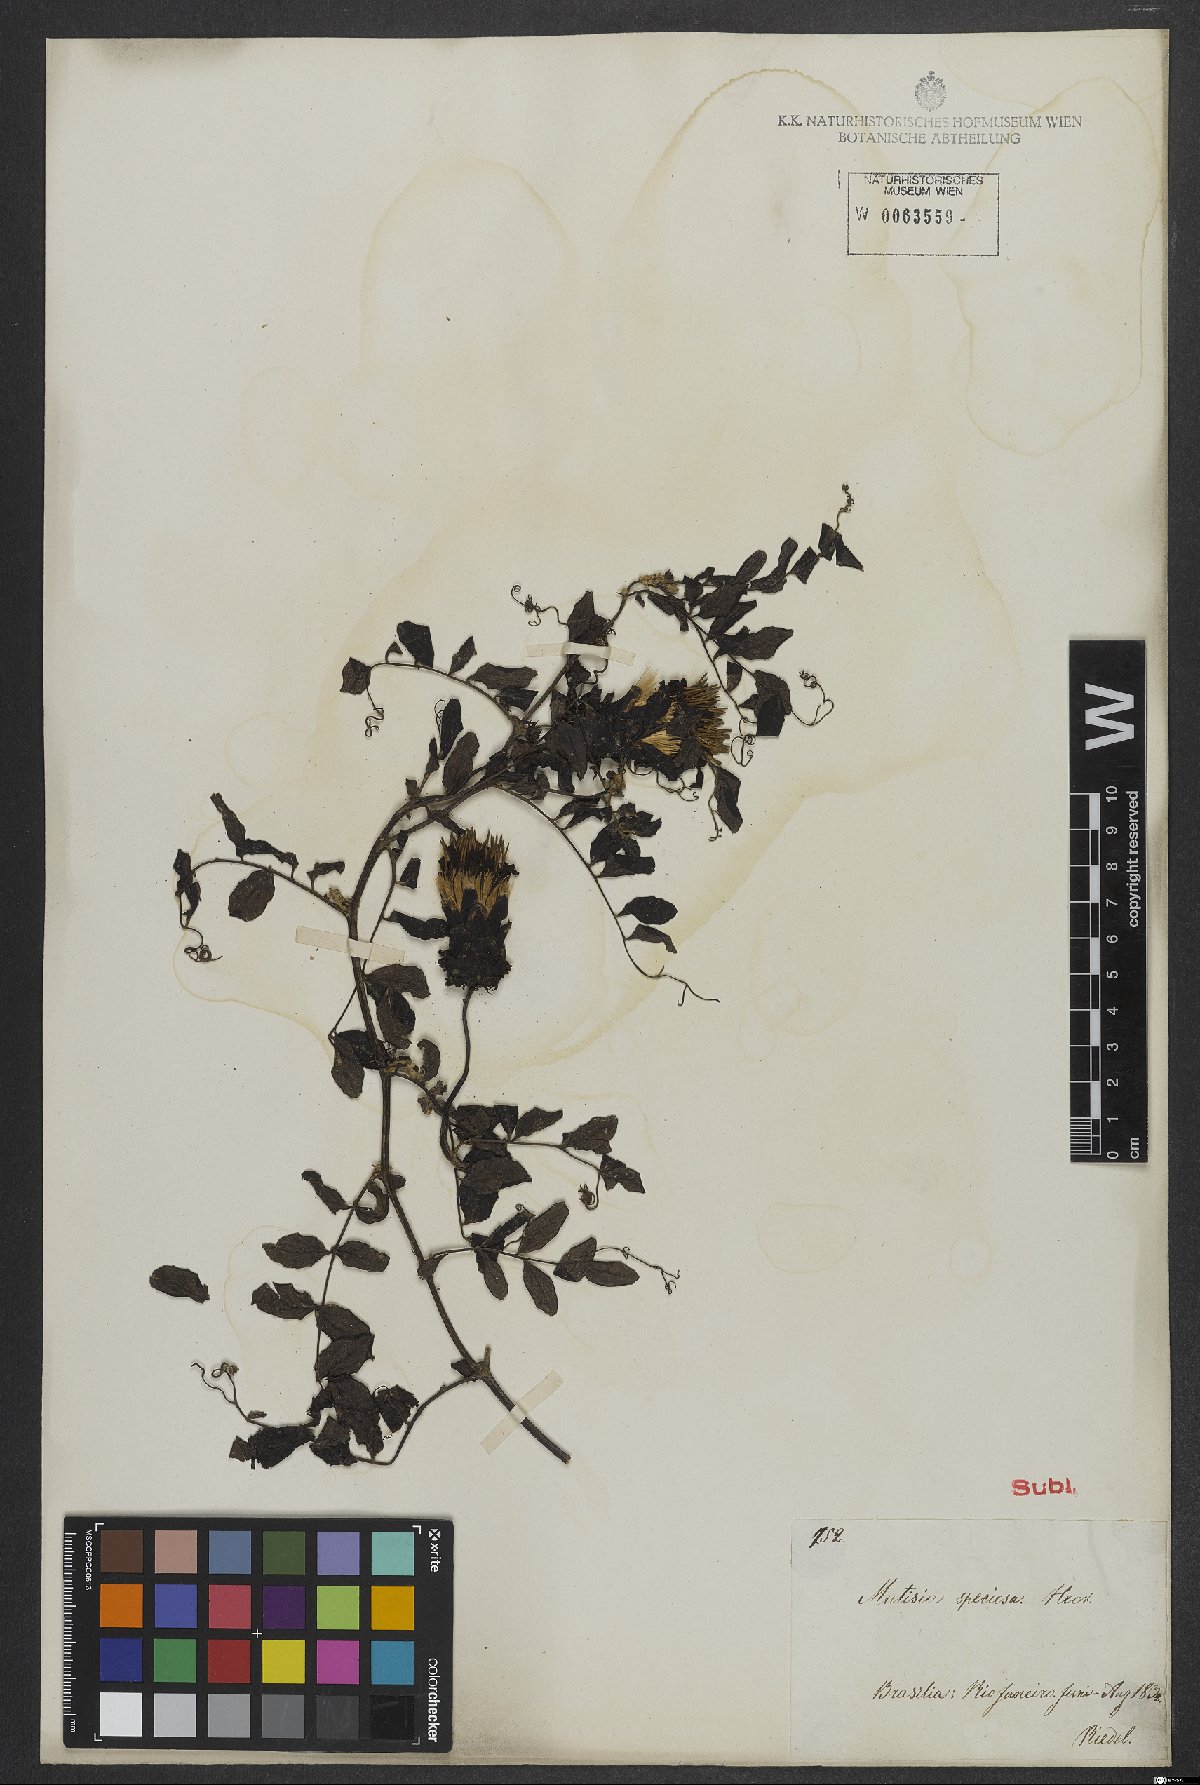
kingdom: Plantae
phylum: Tracheophyta
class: Magnoliopsida
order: Asterales
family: Asteraceae
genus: Mutisia
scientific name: Mutisia speciosa
